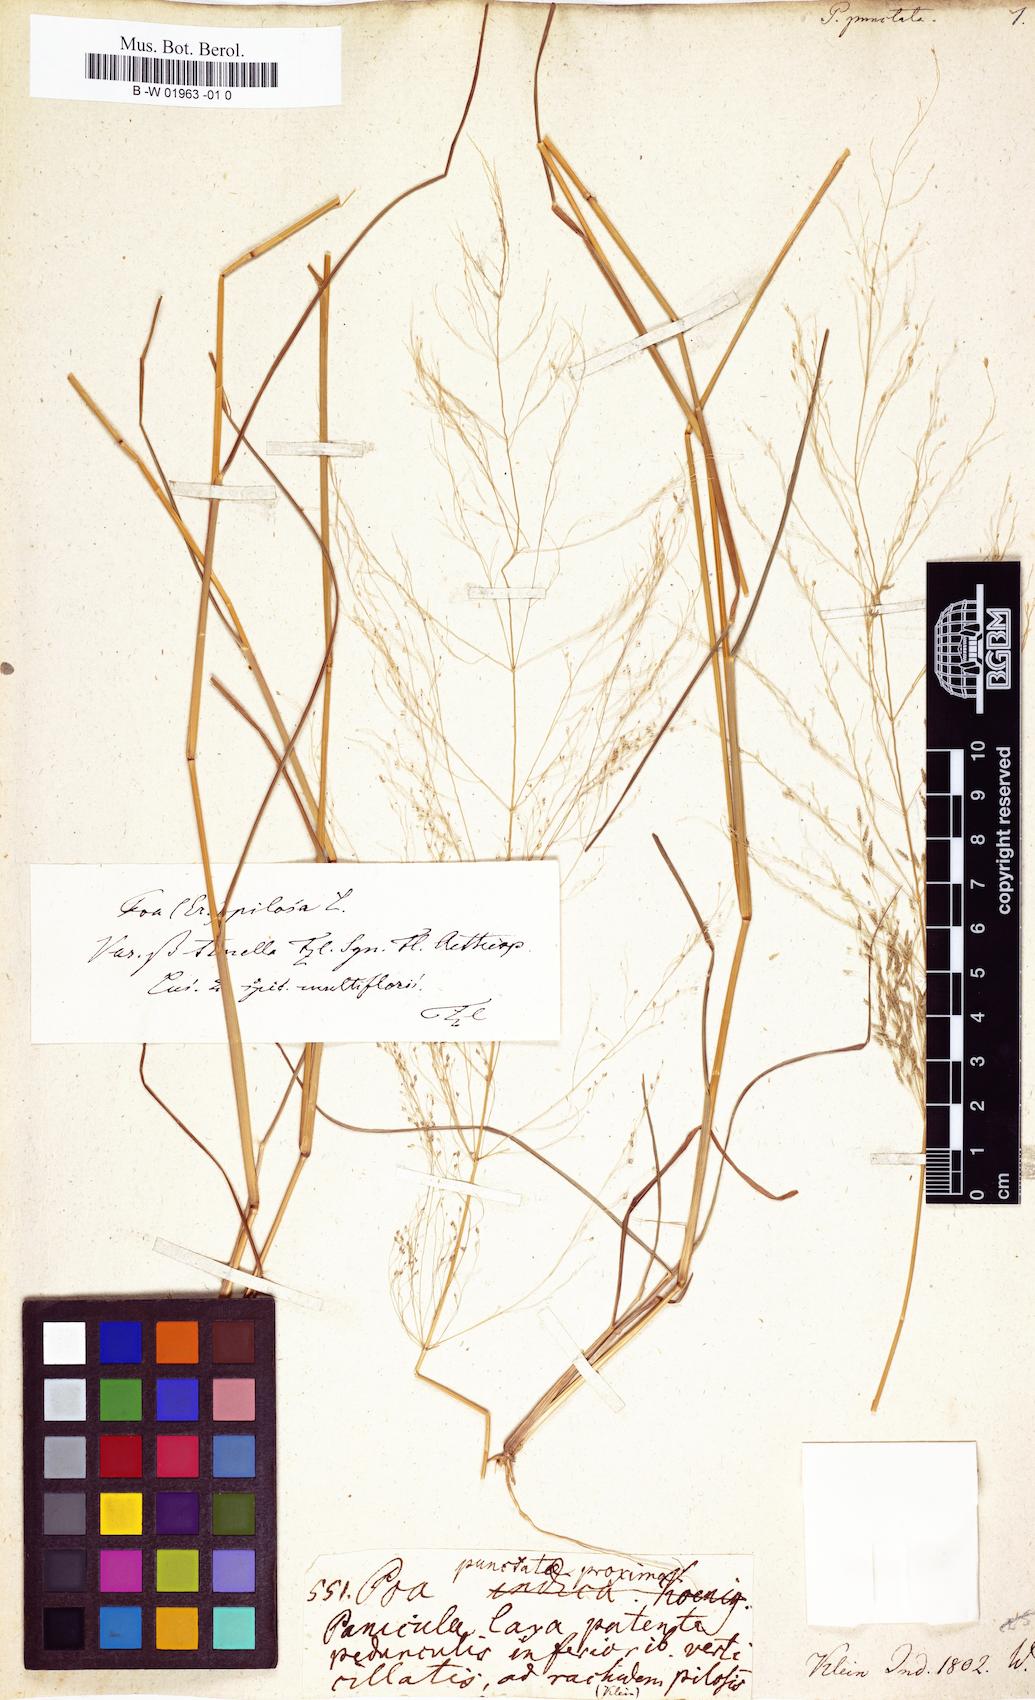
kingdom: Plantae
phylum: Tracheophyta
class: Liliopsida
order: Poales
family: Poaceae
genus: Poa
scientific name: Poa punctata
